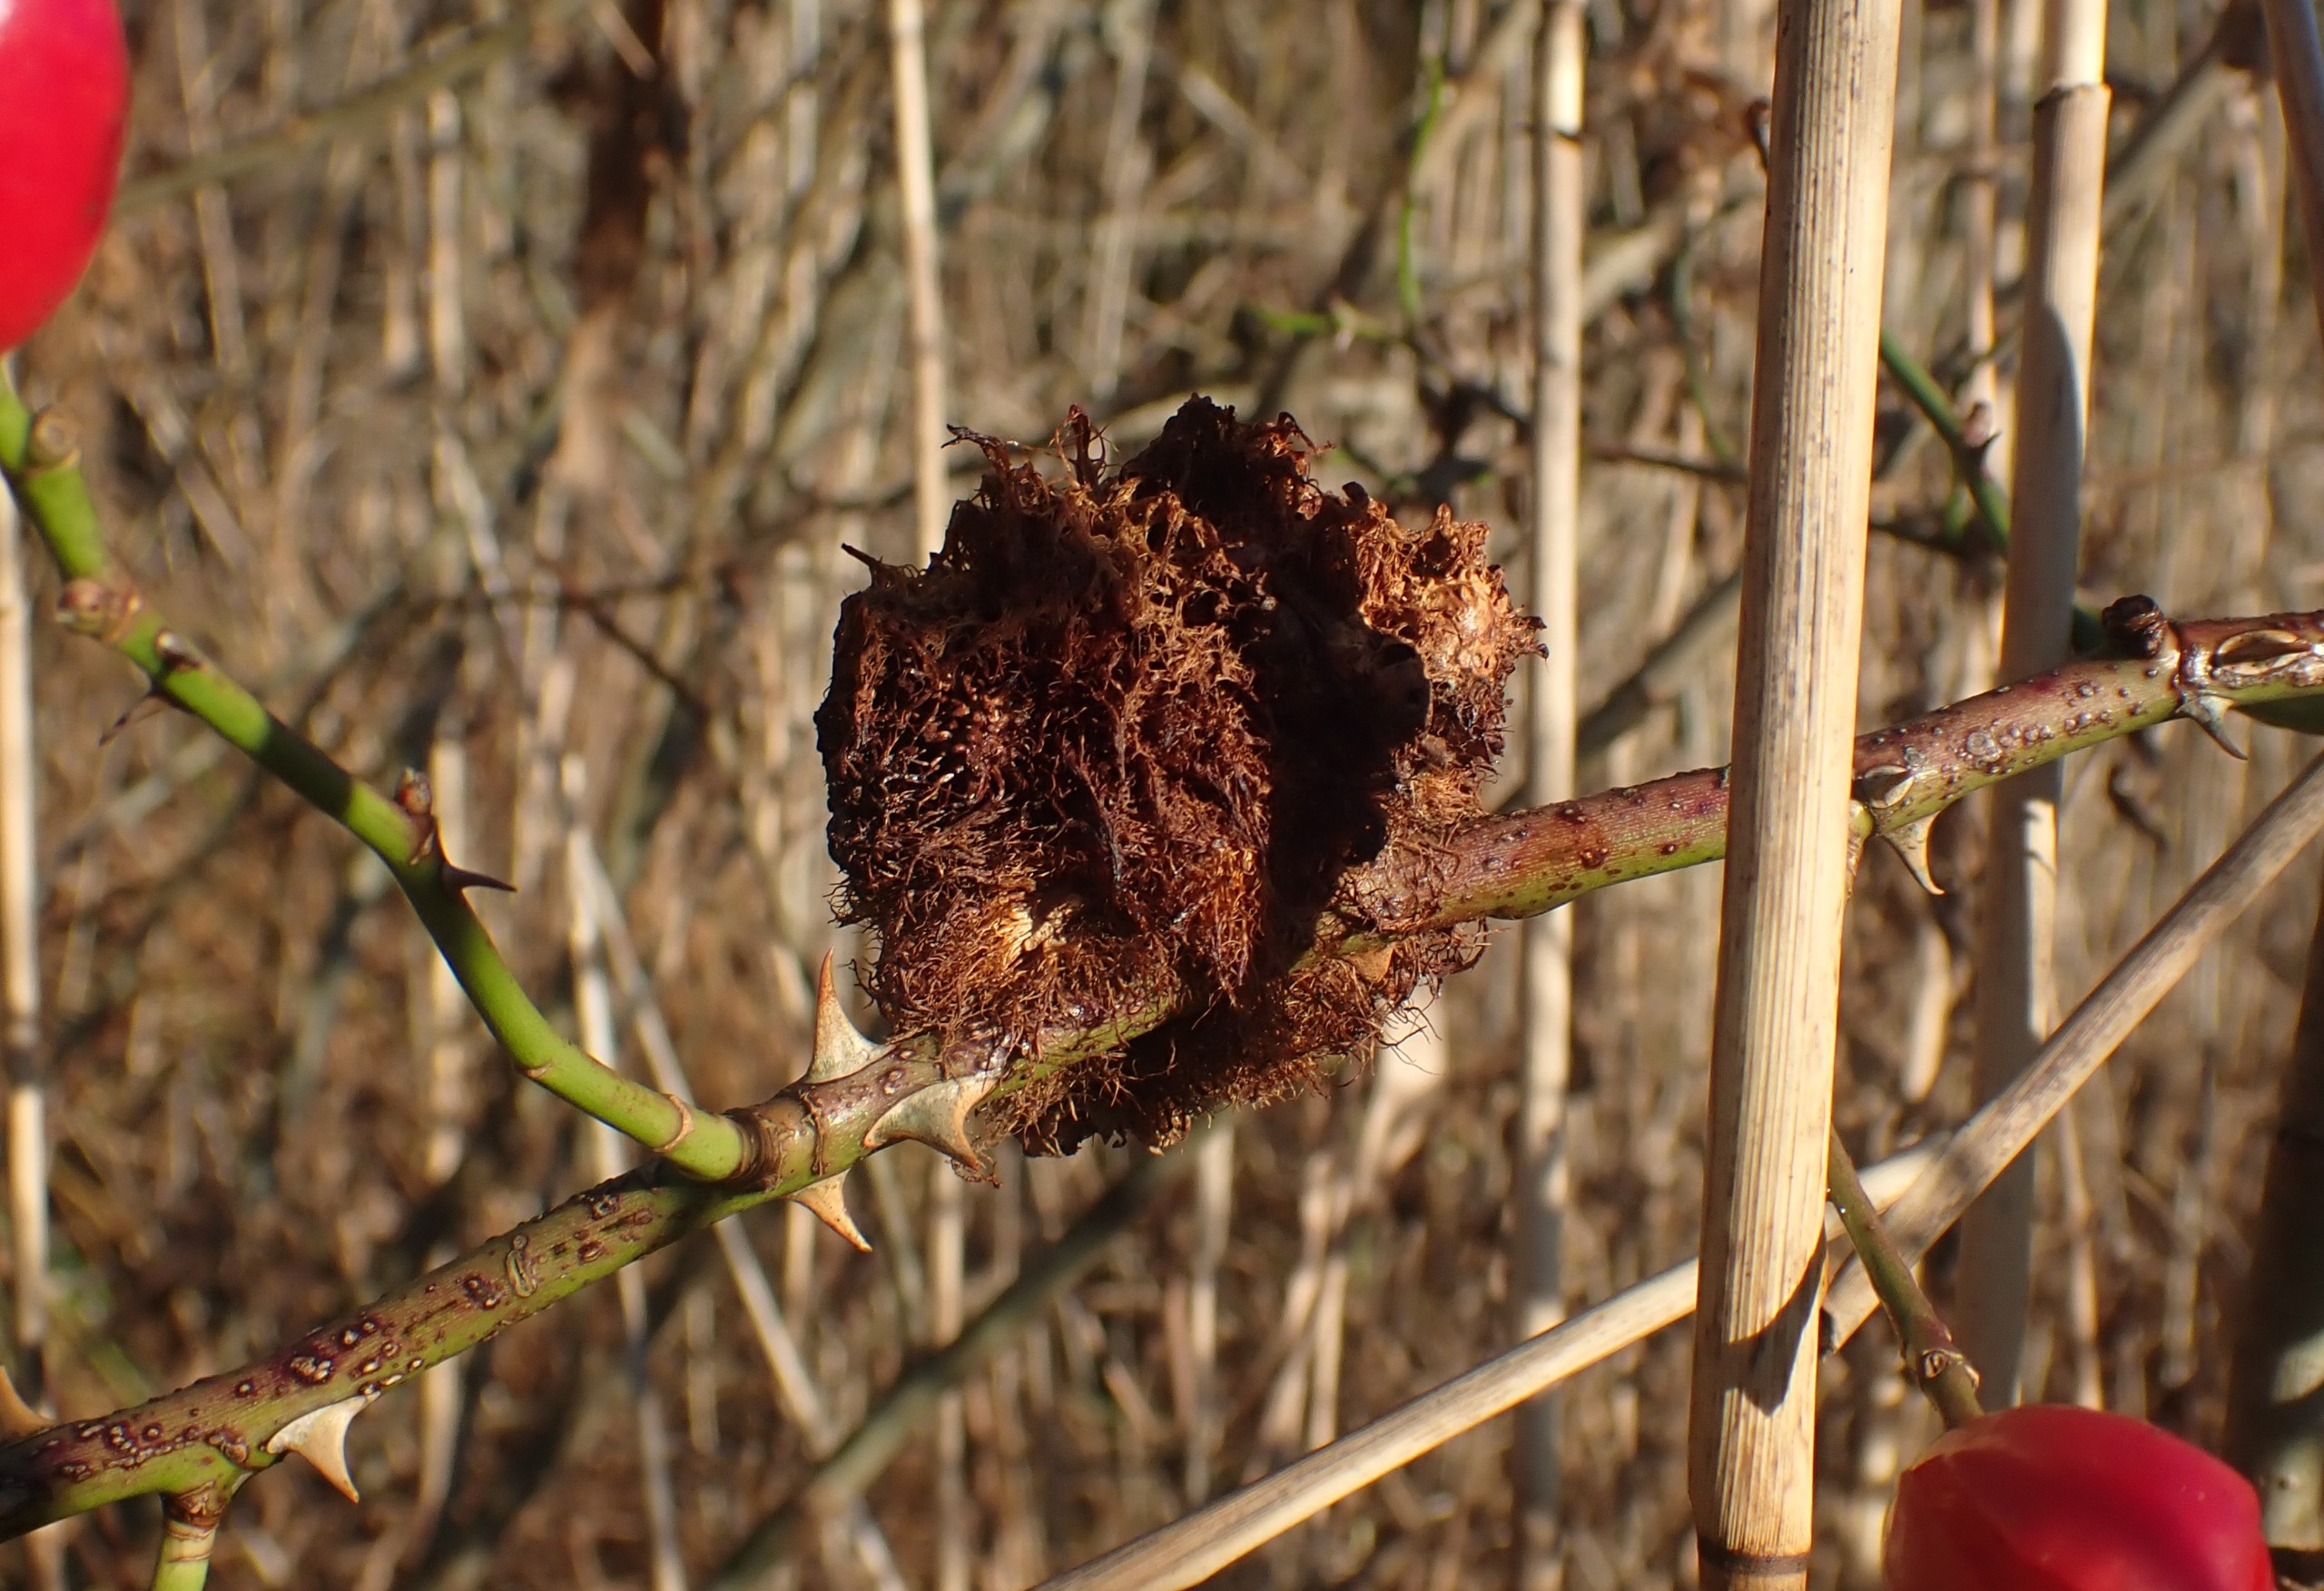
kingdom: Animalia
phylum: Arthropoda
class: Insecta
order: Hymenoptera
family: Cynipidae
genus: Diplolepis
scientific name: Diplolepis rosae
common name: Bedeguargalhveps
